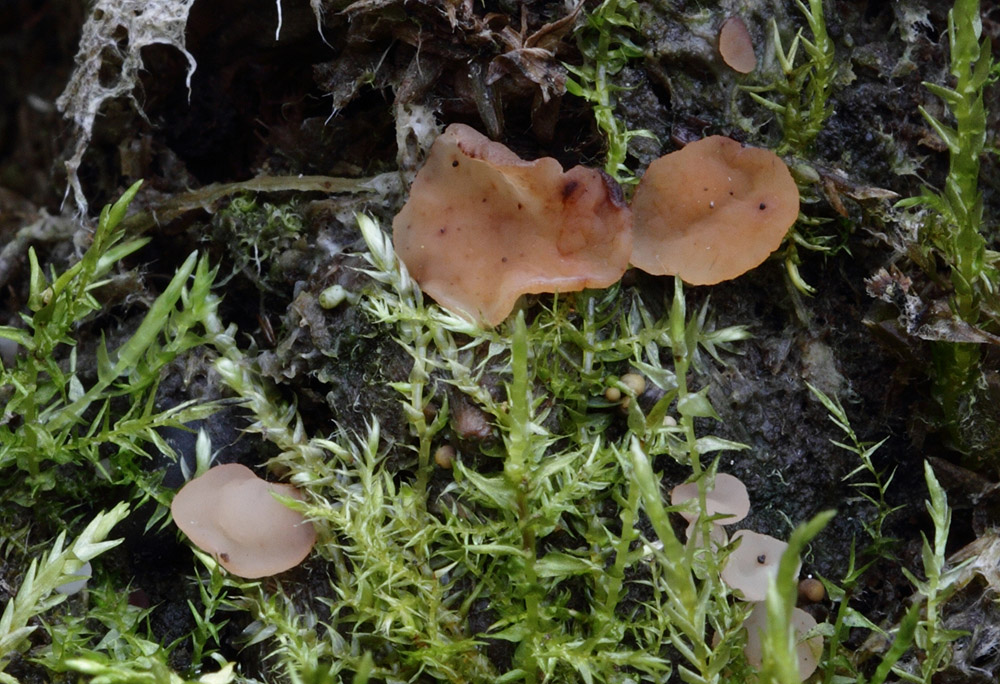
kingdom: Fungi
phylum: Ascomycota
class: Leotiomycetes
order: Helotiales
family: Helotiaceae
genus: Hymenoscyphus
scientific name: Hymenoscyphus
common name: stilkskive
